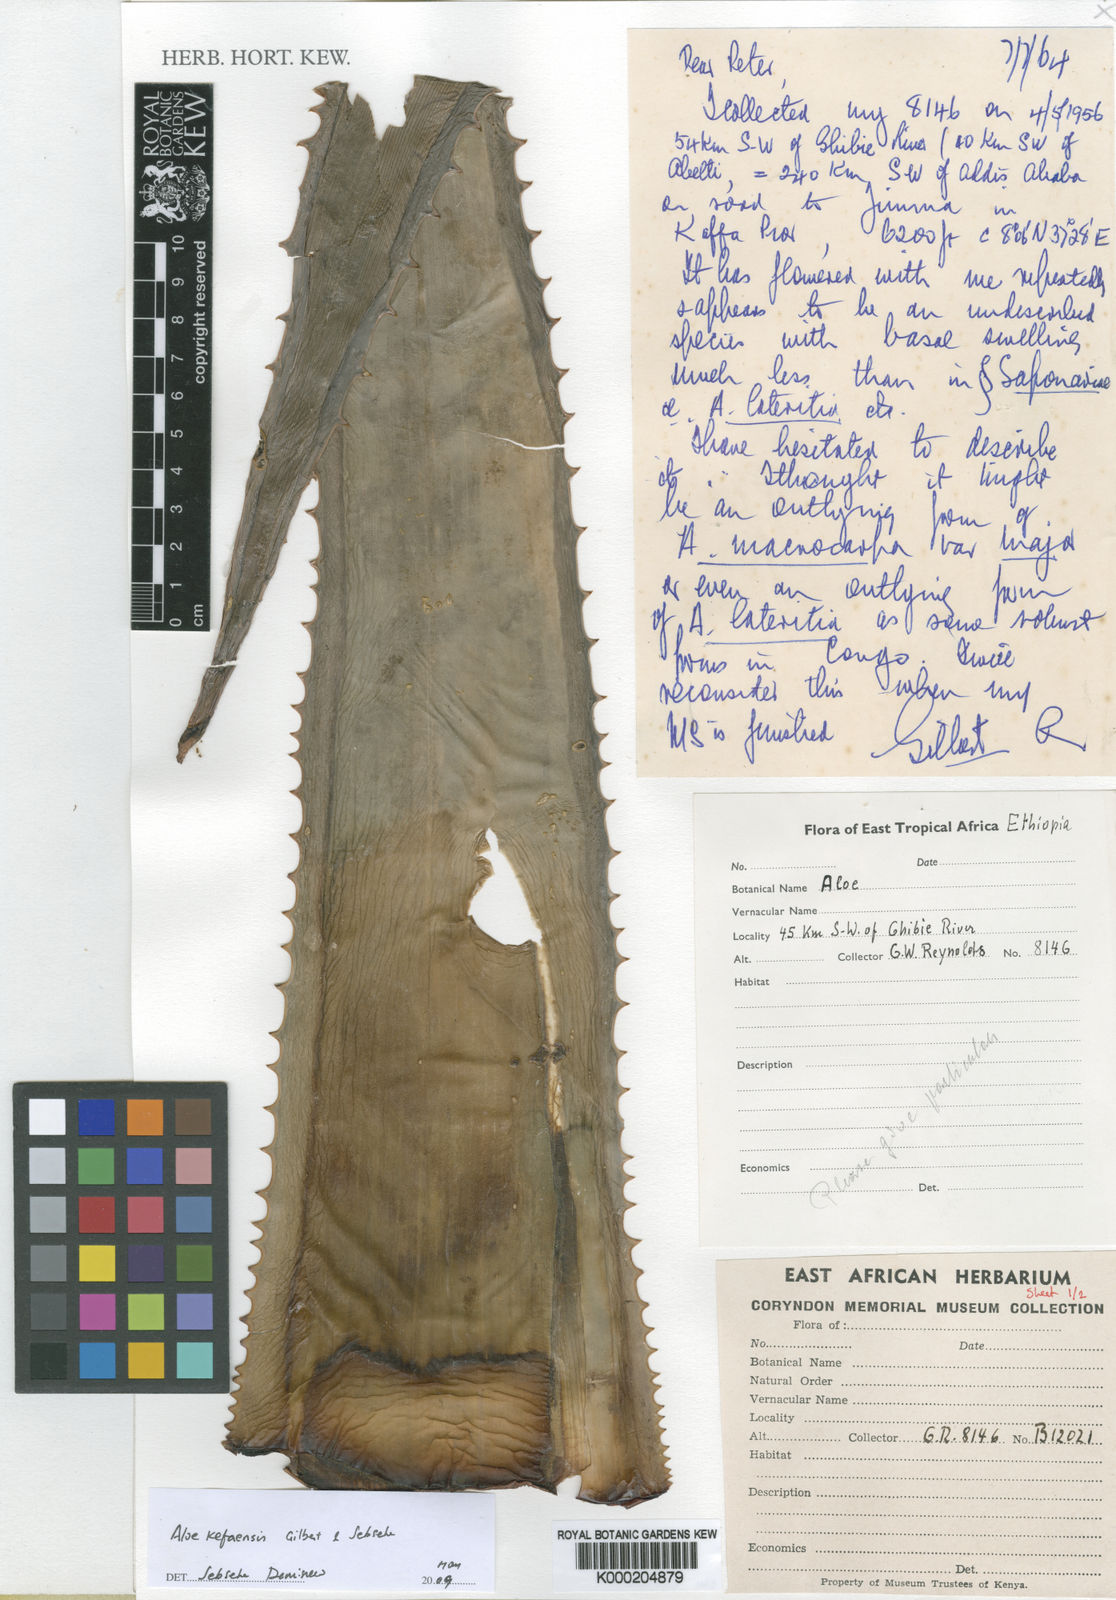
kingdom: Plantae
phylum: Tracheophyta
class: Liliopsida
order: Asparagales
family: Asphodelaceae
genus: Aloe
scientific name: Aloe kefaensis
